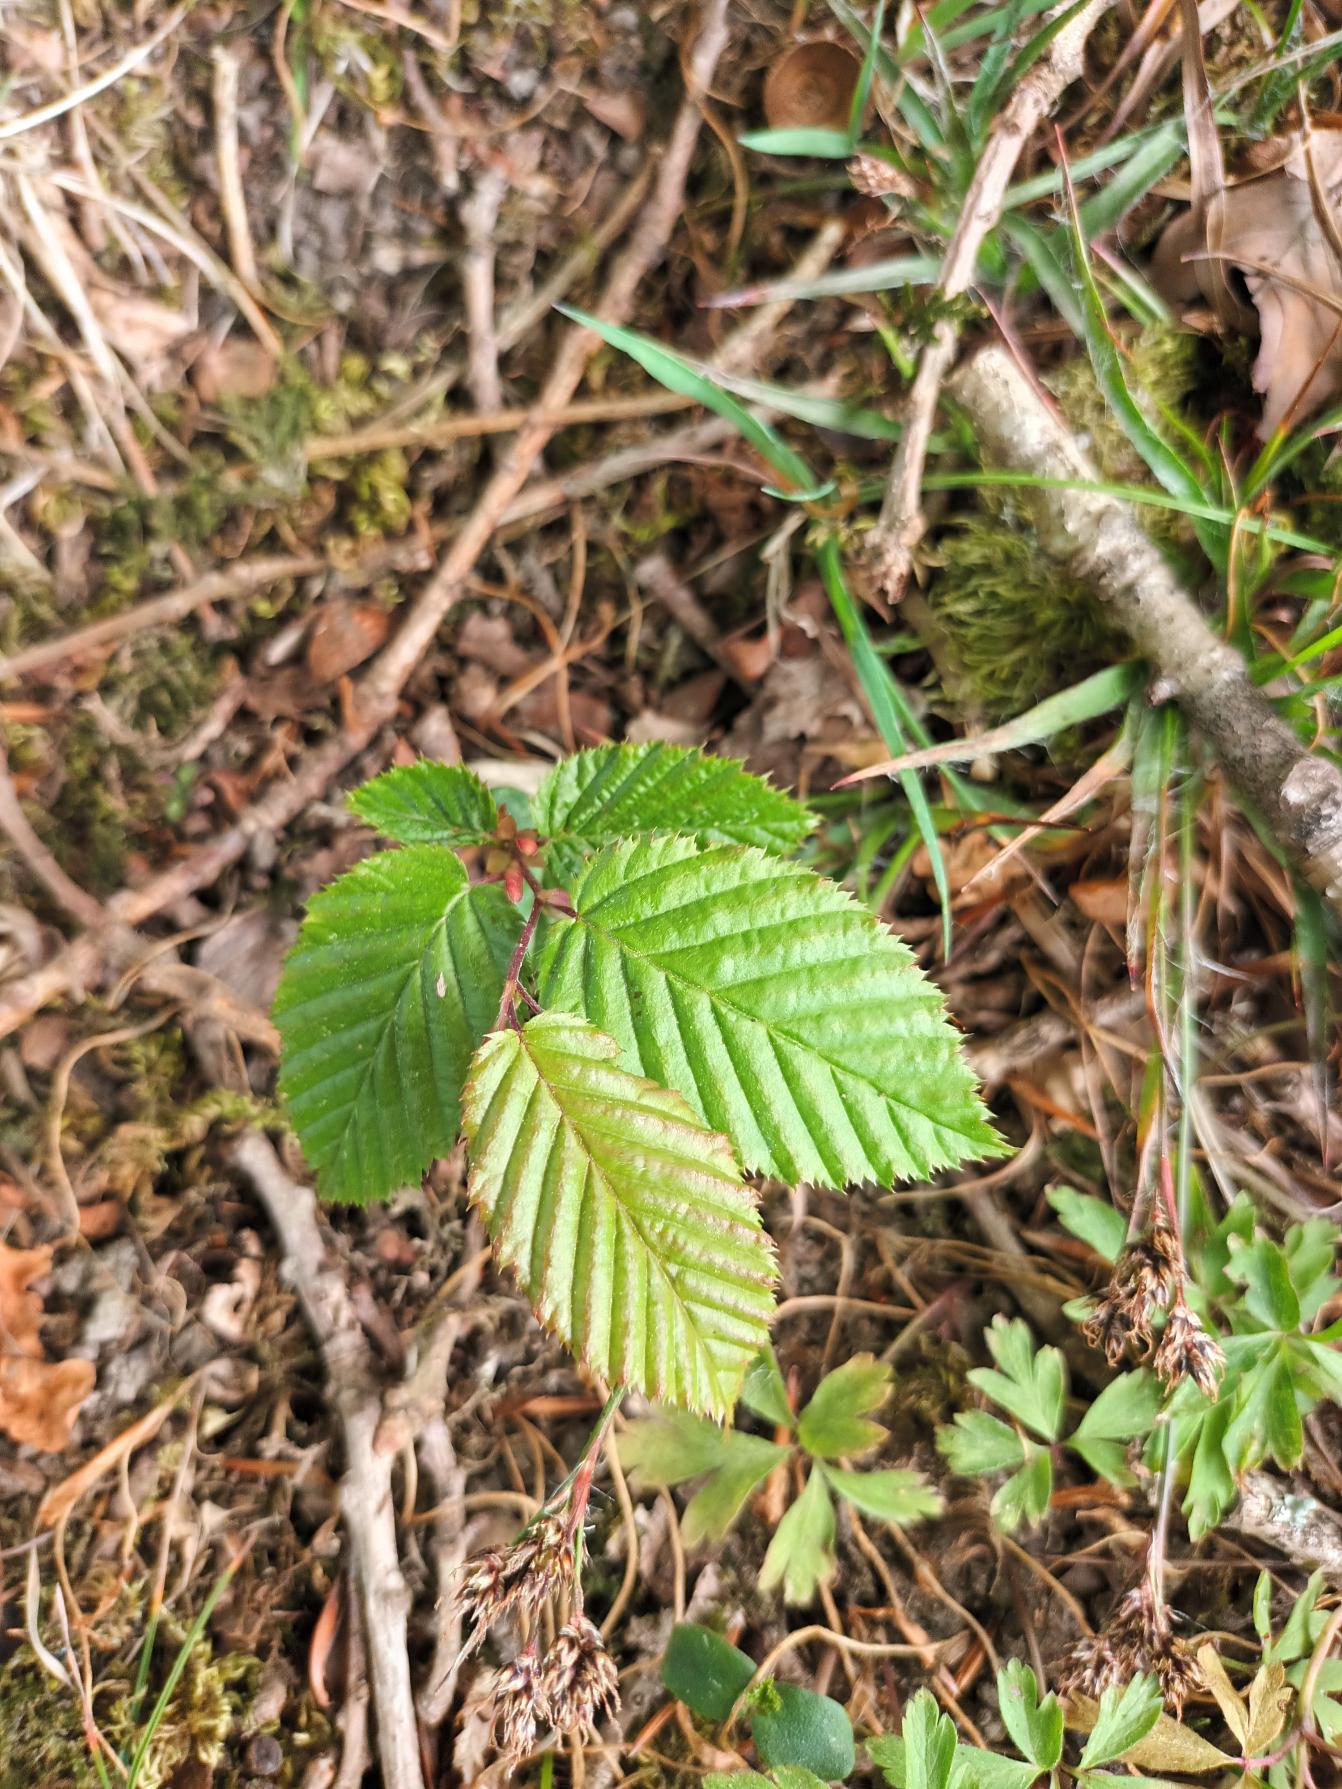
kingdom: Plantae
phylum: Tracheophyta
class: Magnoliopsida
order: Fagales
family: Betulaceae
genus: Carpinus
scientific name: Carpinus betulus
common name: Avnbøg
